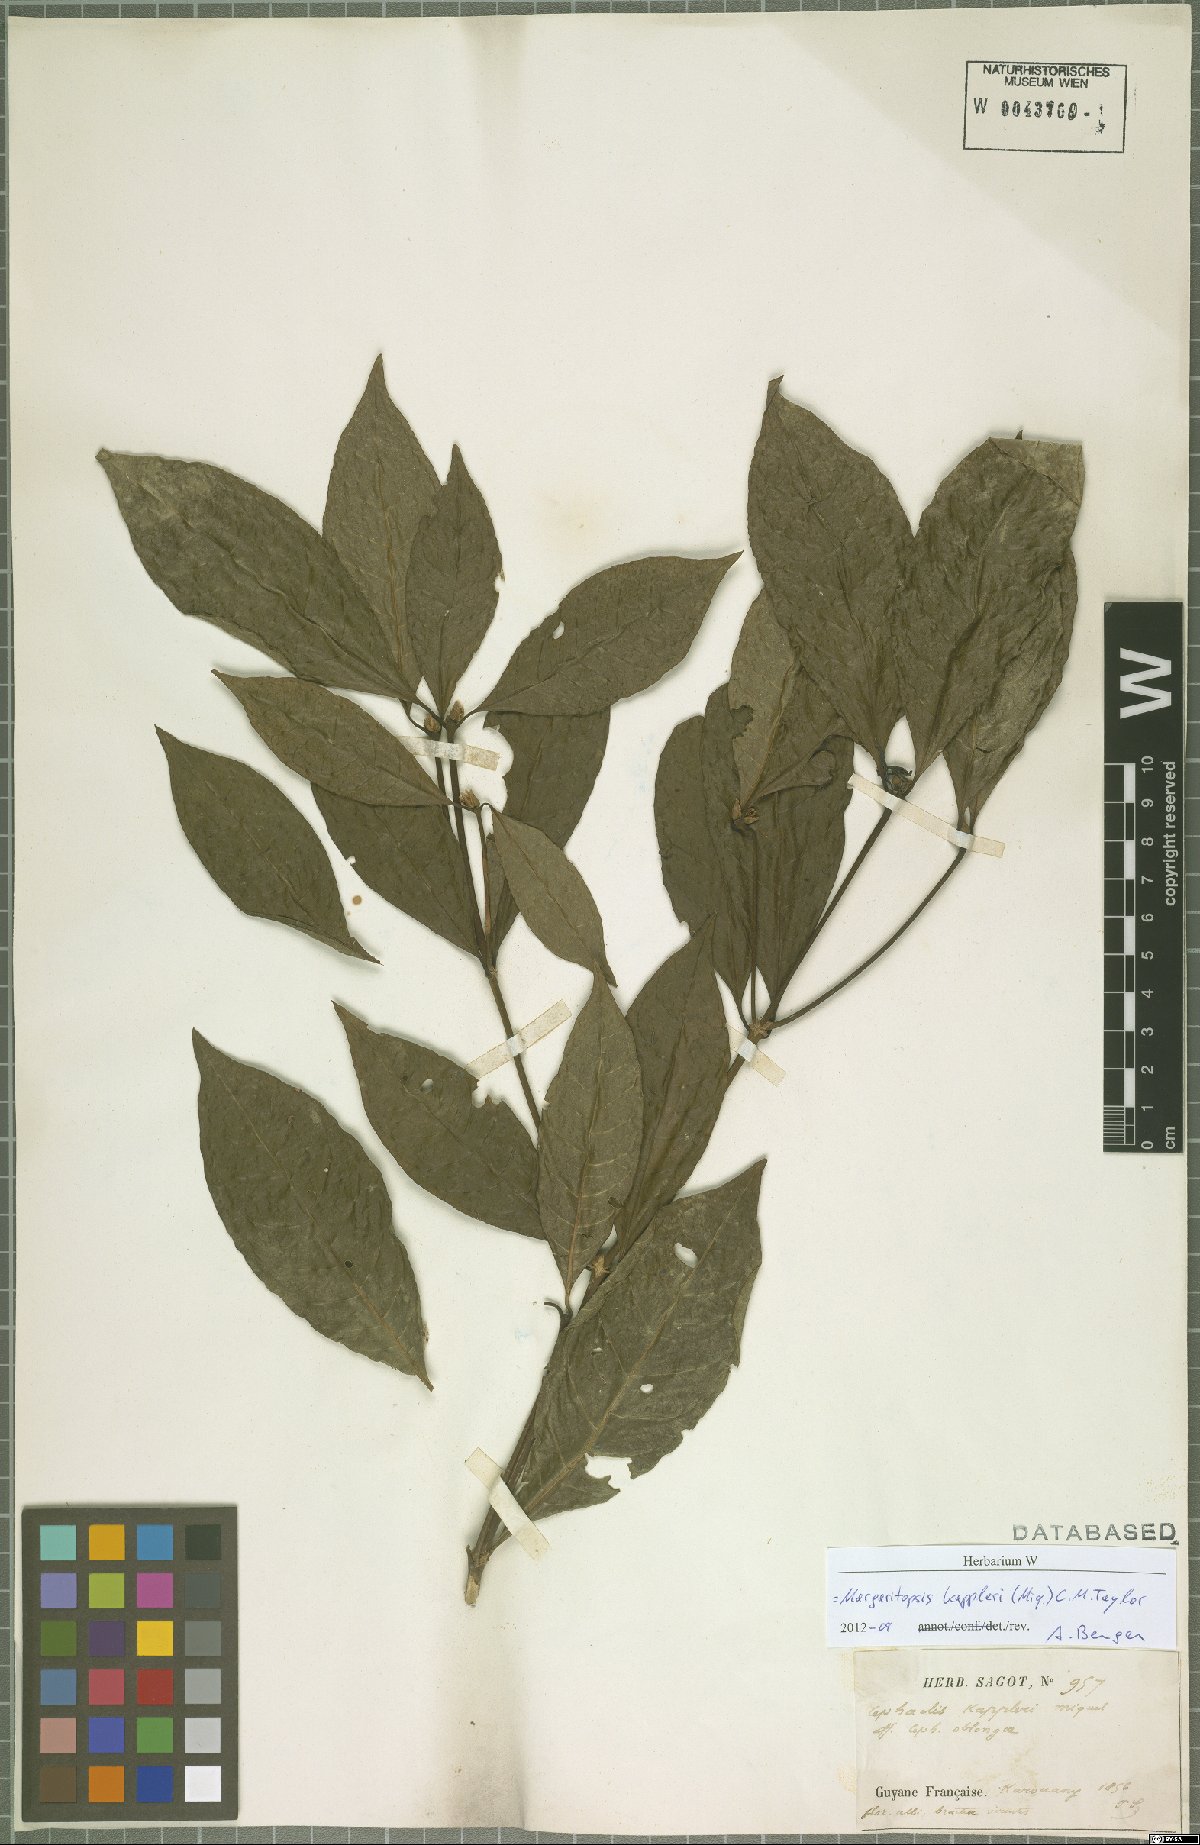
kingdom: Plantae
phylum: Tracheophyta
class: Magnoliopsida
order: Gentianales
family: Rubiaceae
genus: Eumachia
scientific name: Eumachia kappleri
